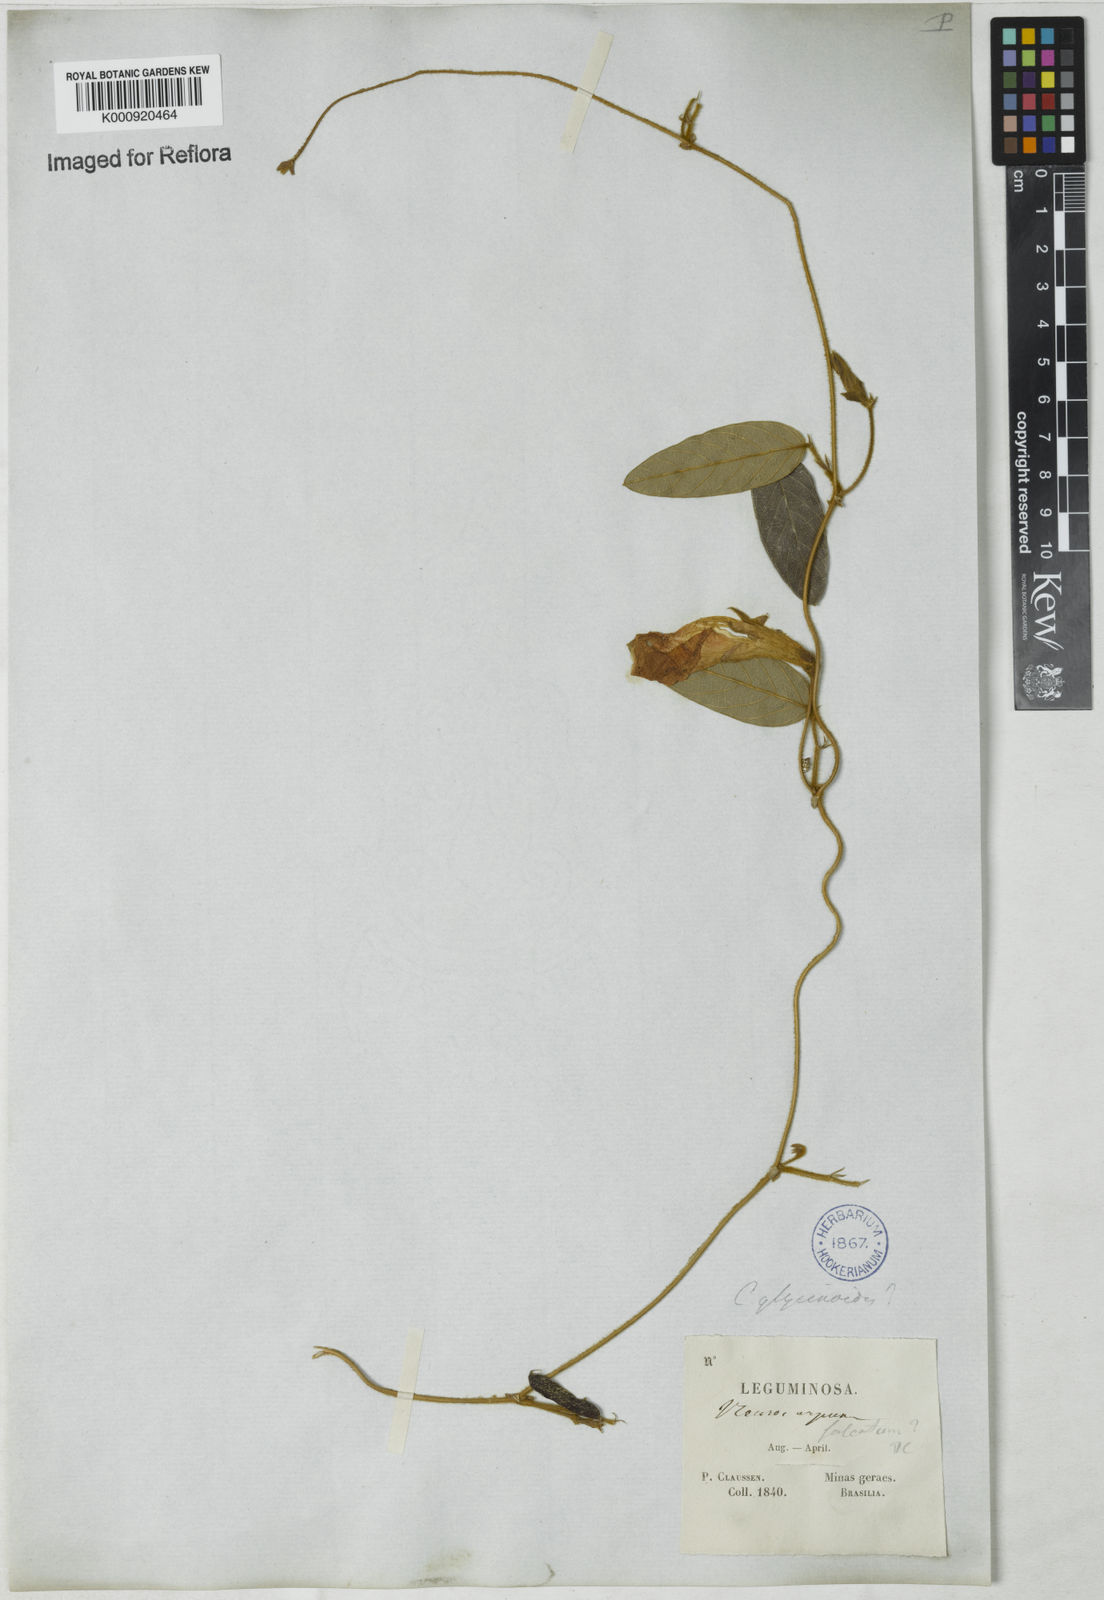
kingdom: Plantae
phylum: Tracheophyta
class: Magnoliopsida
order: Fabales
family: Fabaceae
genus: Clitoria
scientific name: Clitoria
